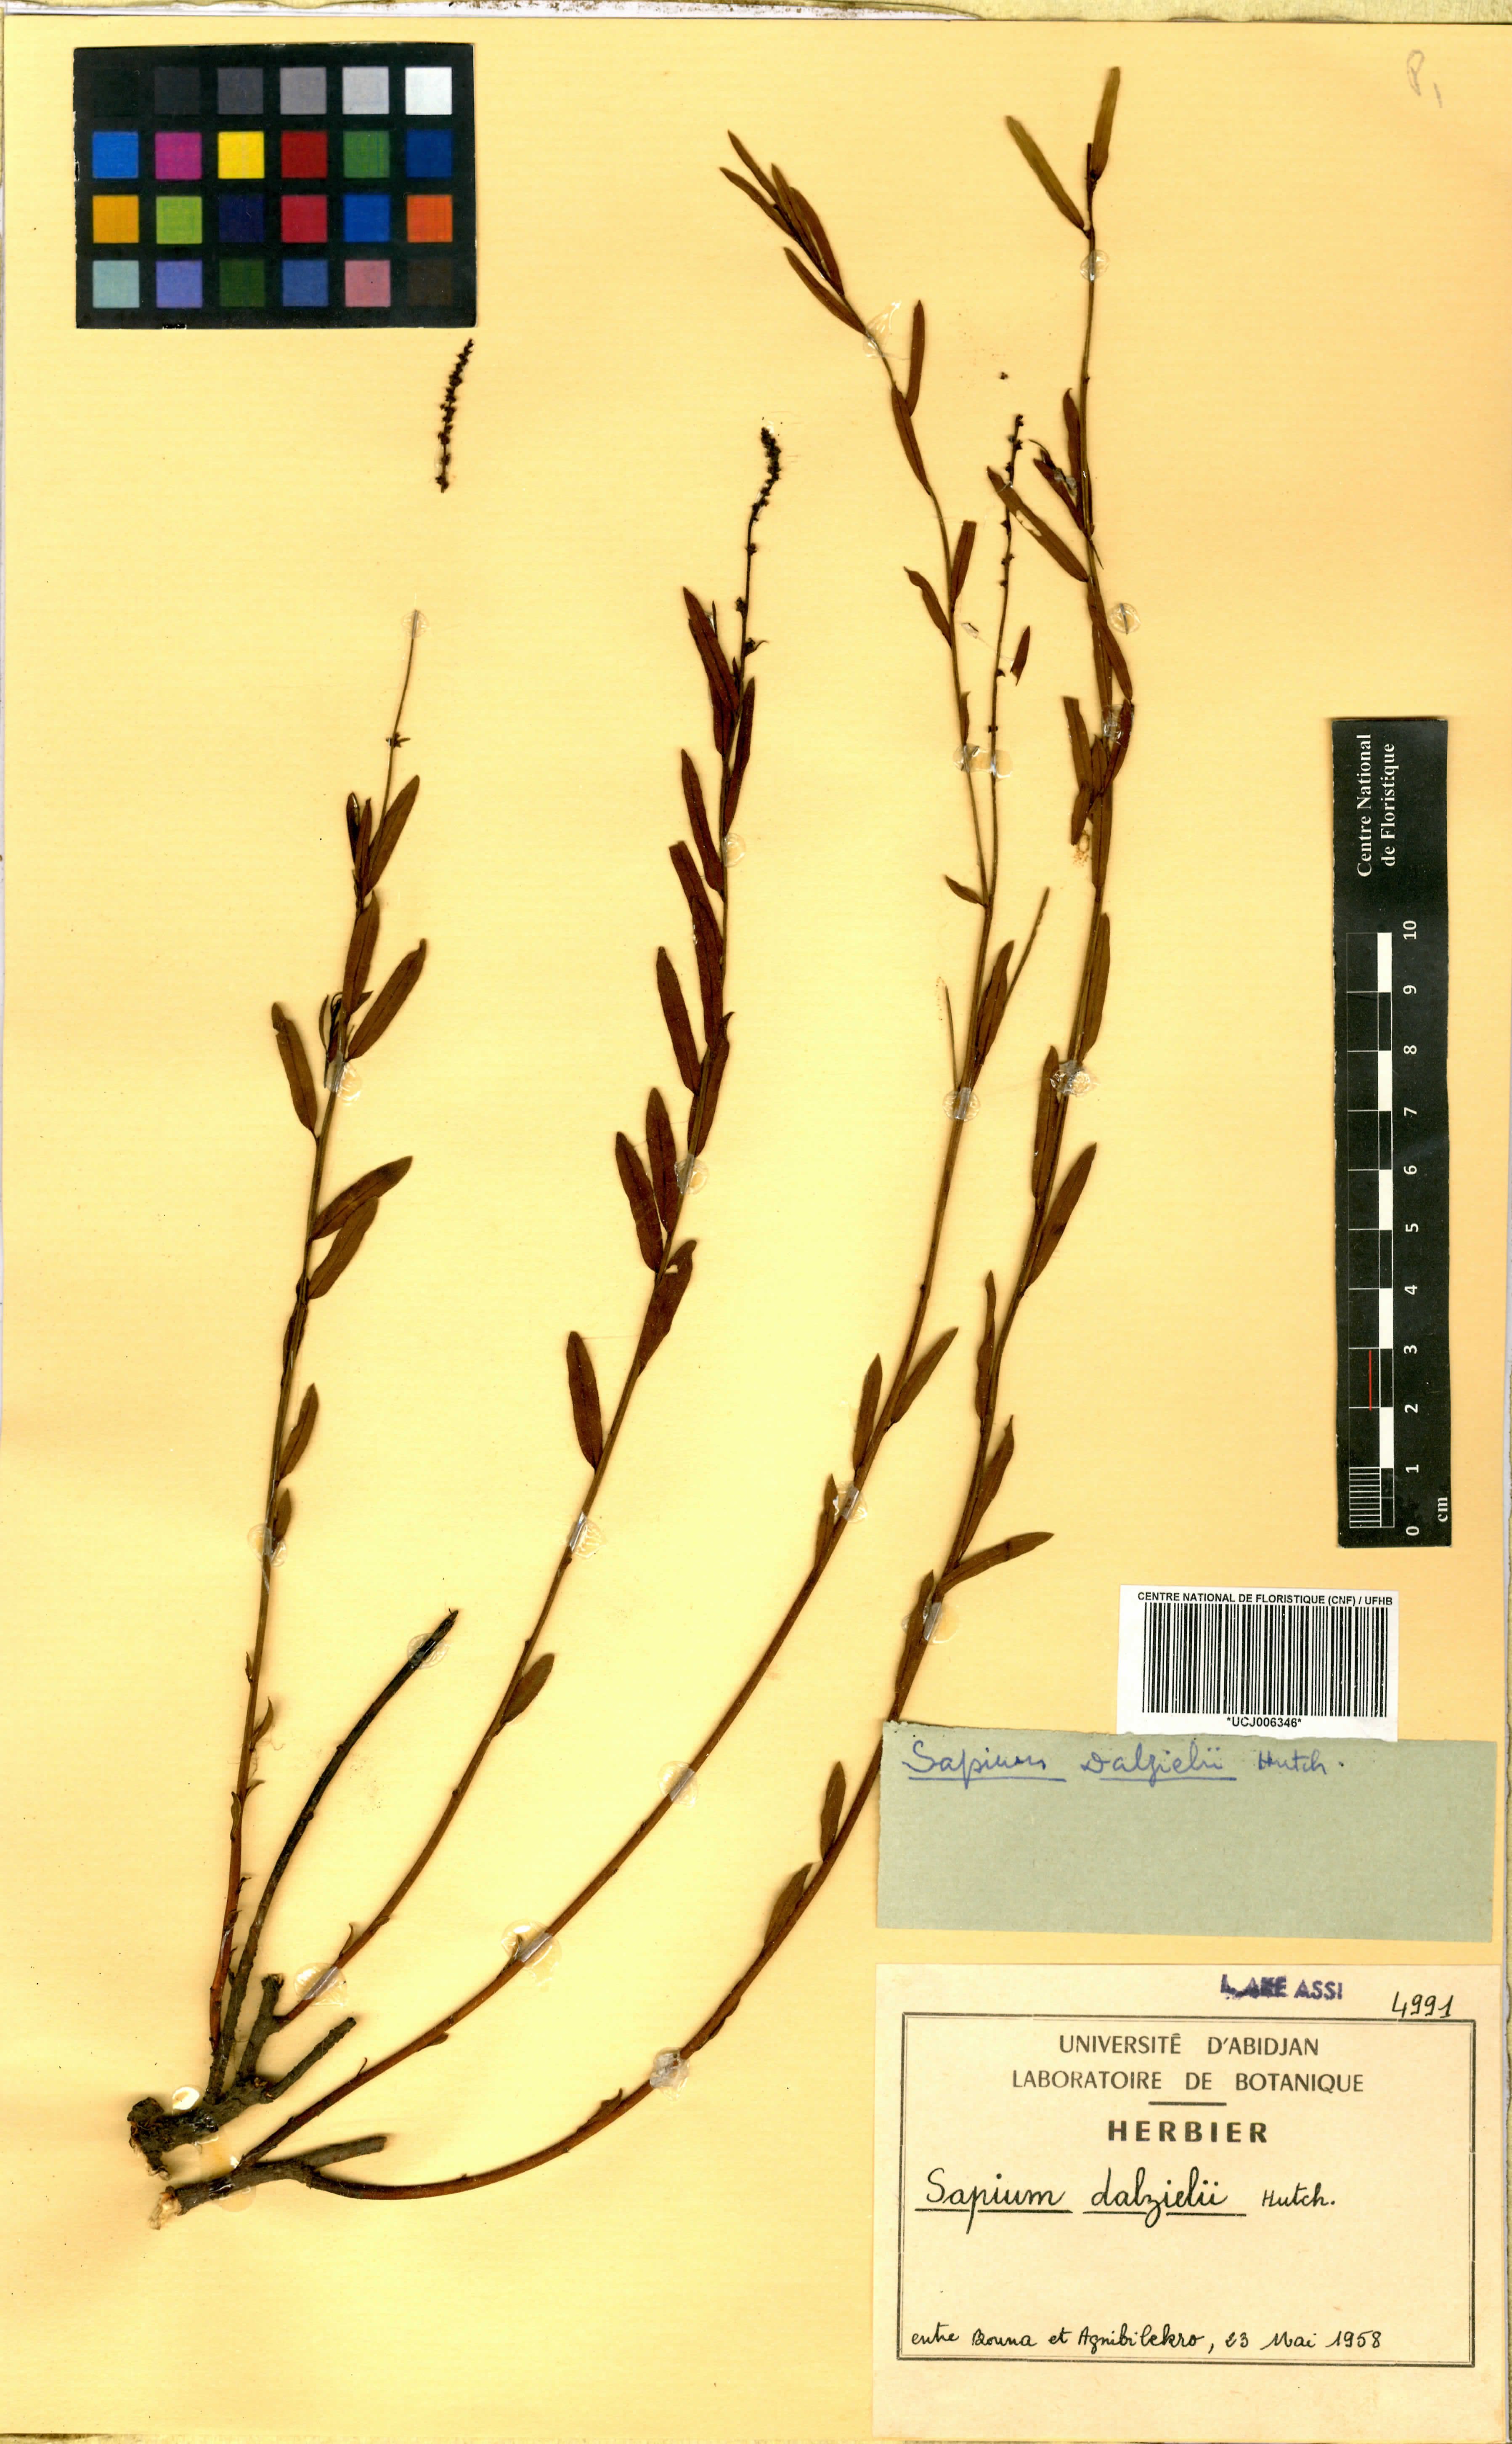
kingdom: Plantae
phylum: Tracheophyta
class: Magnoliopsida
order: Malpighiales
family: Euphorbiaceae
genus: Microstachys
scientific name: Microstachys dalzielii
